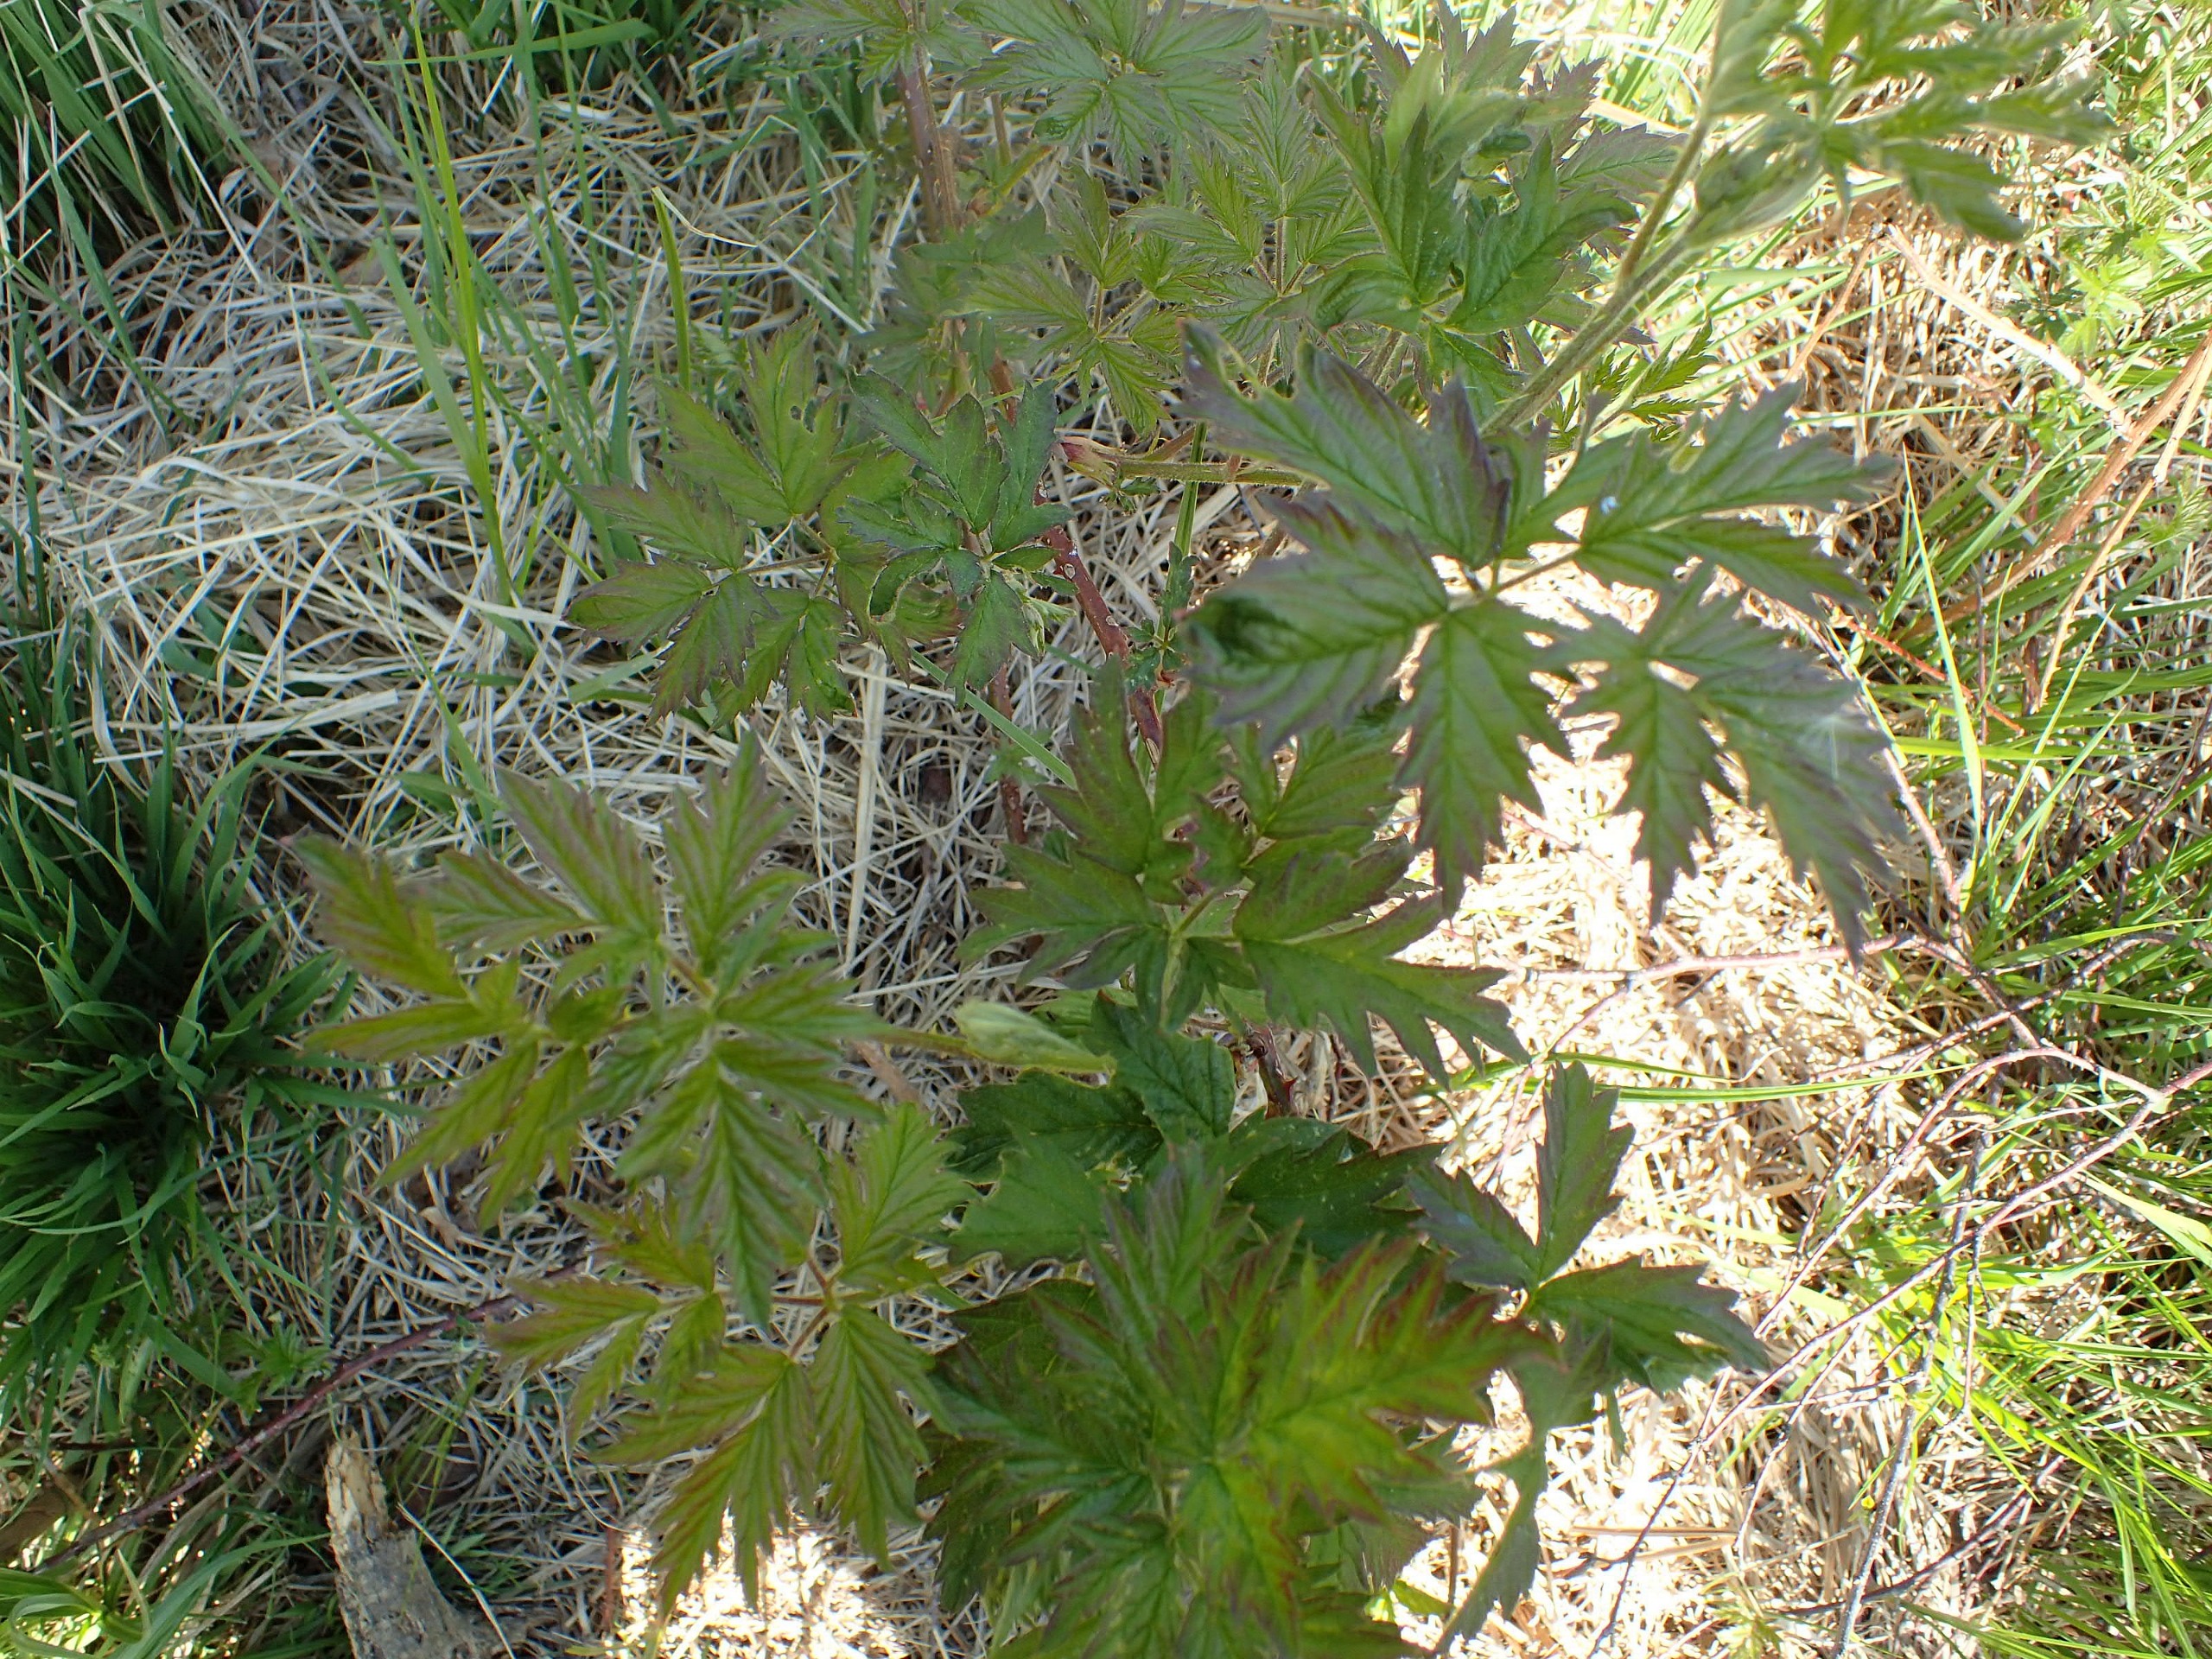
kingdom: Plantae
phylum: Tracheophyta
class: Magnoliopsida
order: Rosales
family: Rosaceae
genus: Rubus
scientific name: Rubus laciniatus
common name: Fliget brombær
